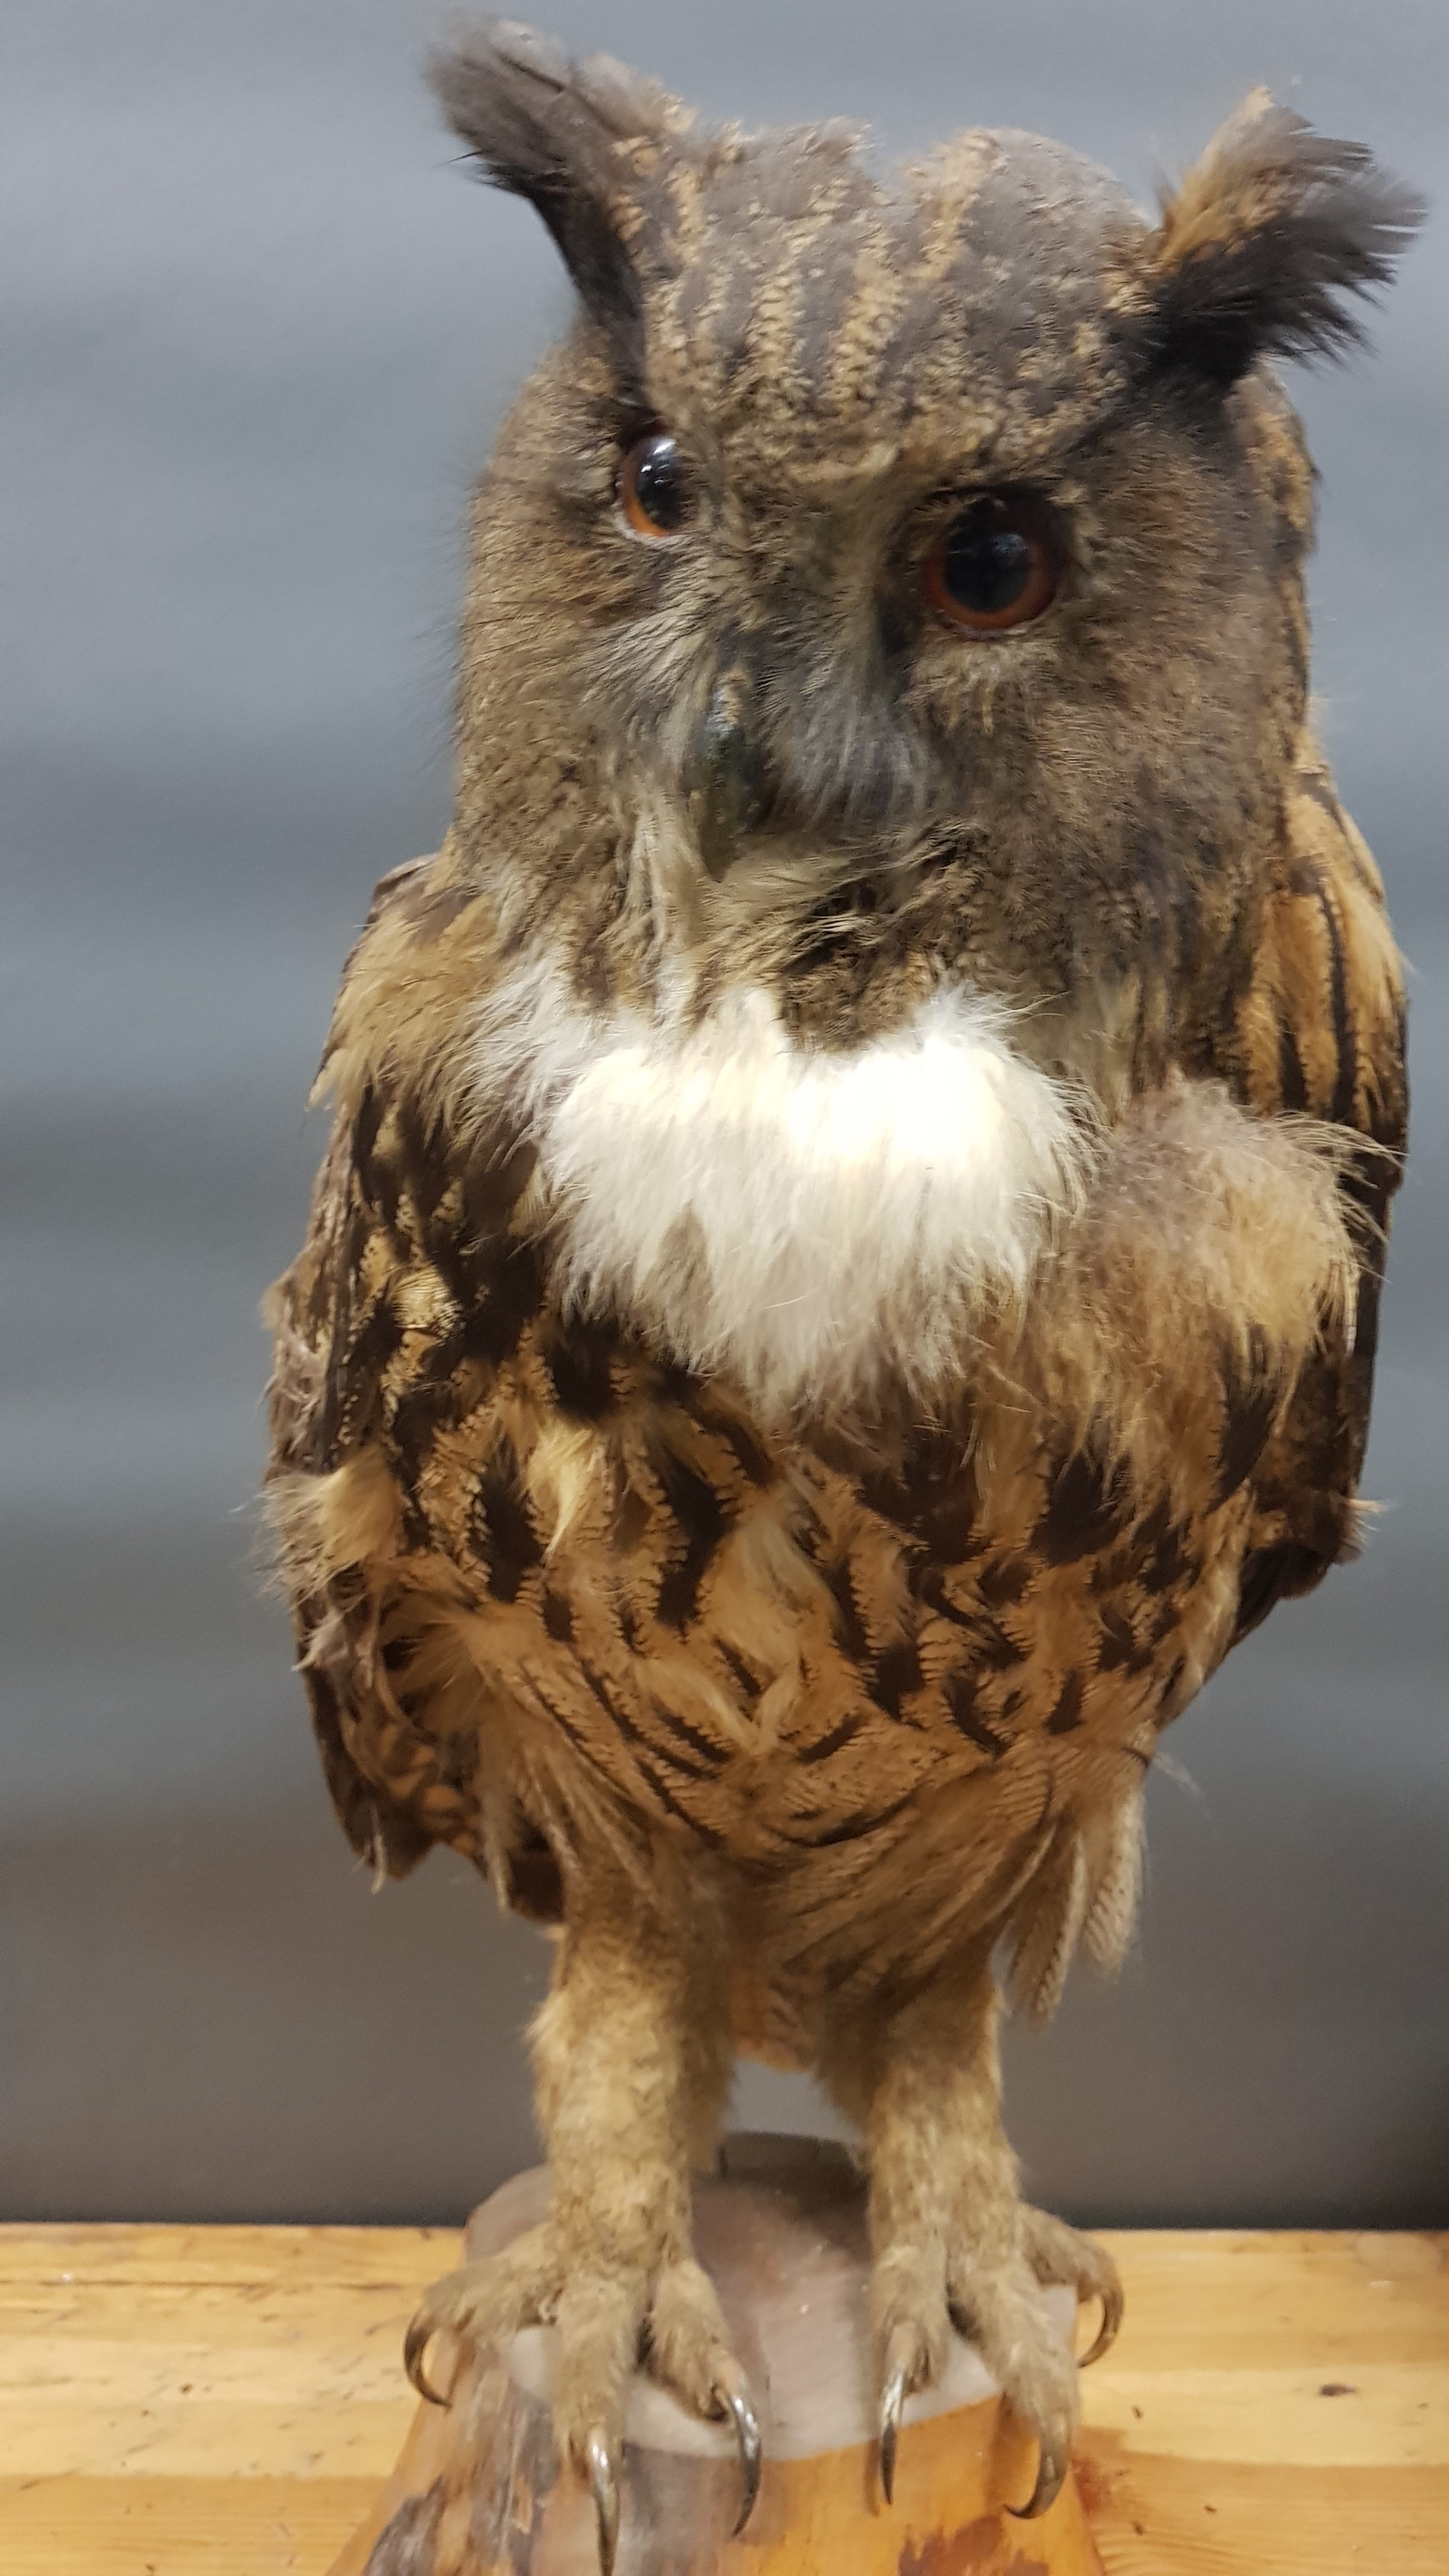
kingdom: Animalia
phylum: Chordata
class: Aves
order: Strigiformes
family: Strigidae
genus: Bubo
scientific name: Bubo
